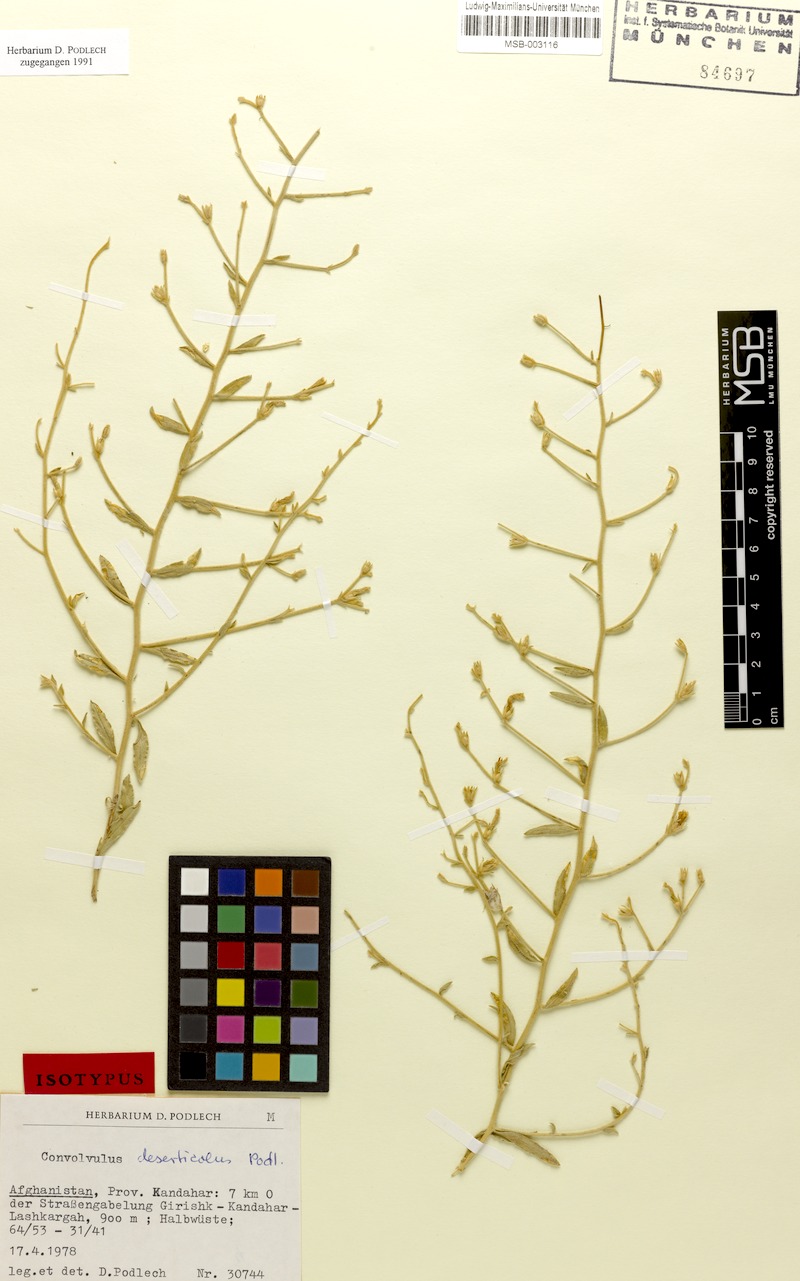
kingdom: Plantae
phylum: Tracheophyta
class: Magnoliopsida
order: Solanales
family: Convolvulaceae
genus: Convolvulus
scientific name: Convolvulus divaricatus
